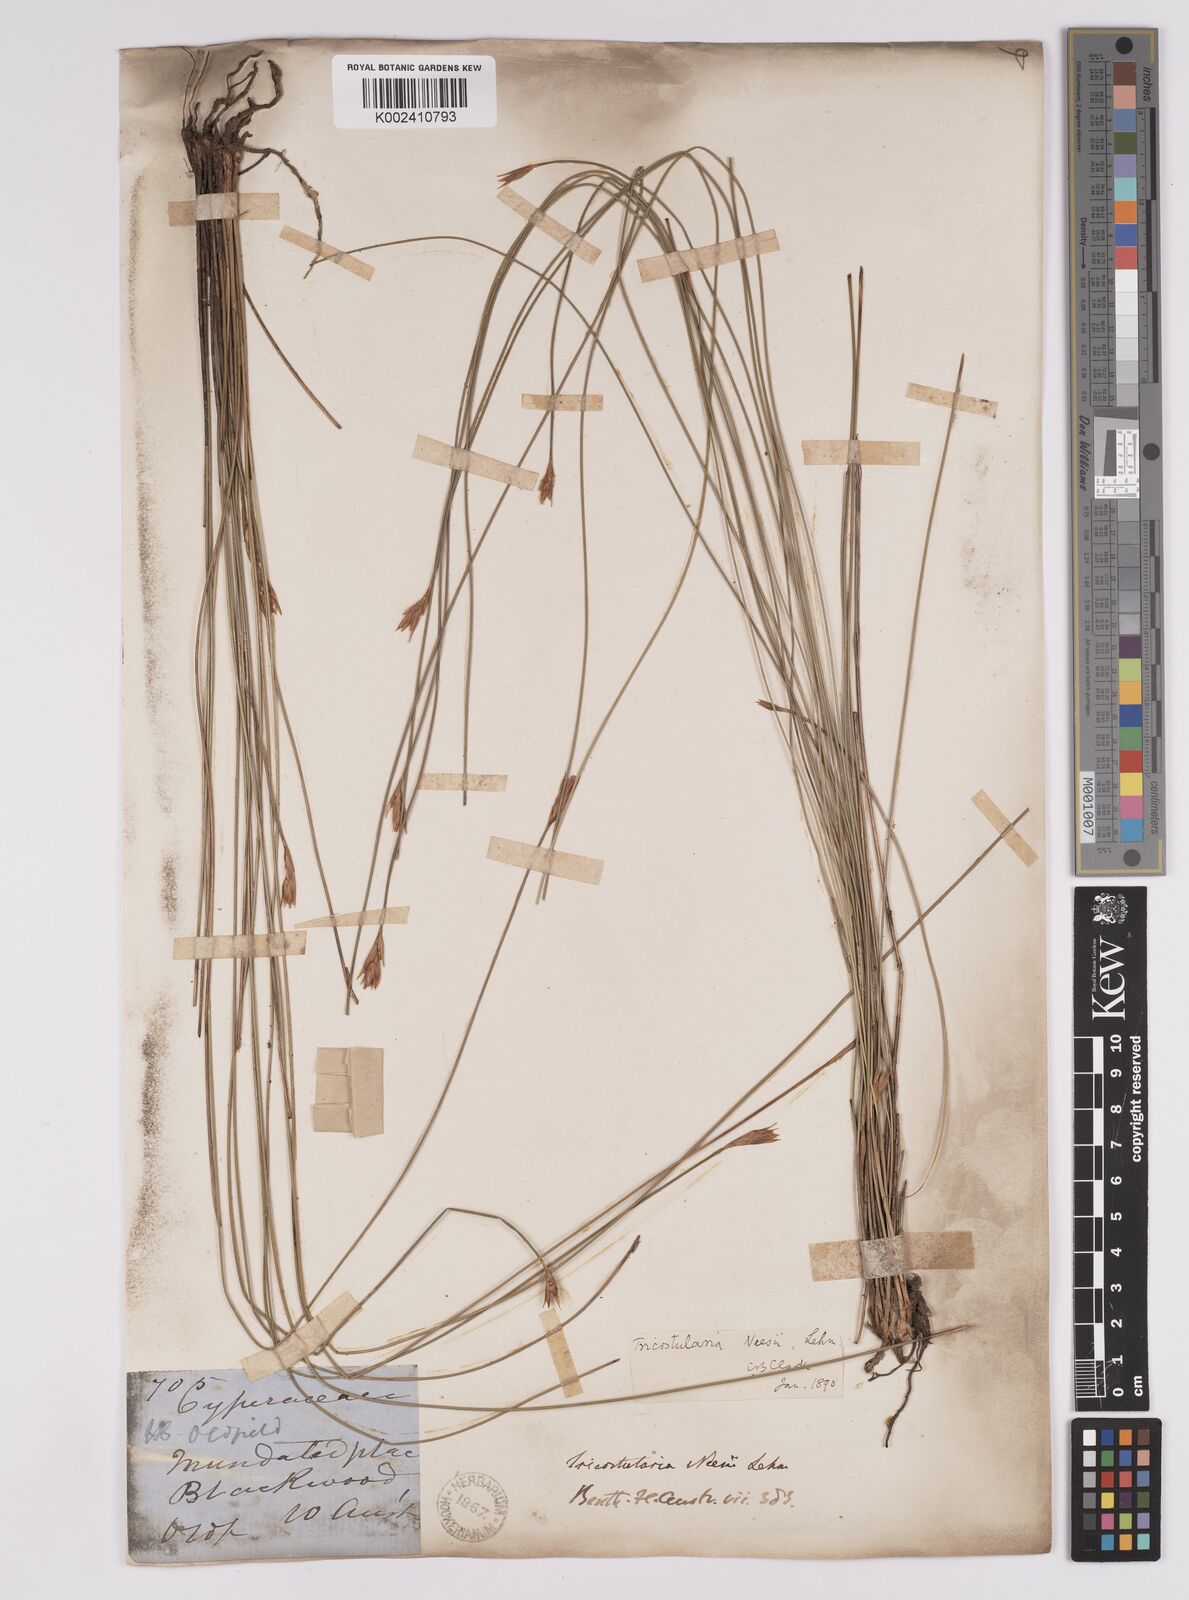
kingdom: Plantae
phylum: Tracheophyta
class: Liliopsida
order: Poales
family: Cyperaceae
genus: Tricostularia
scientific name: Tricostularia neesii
